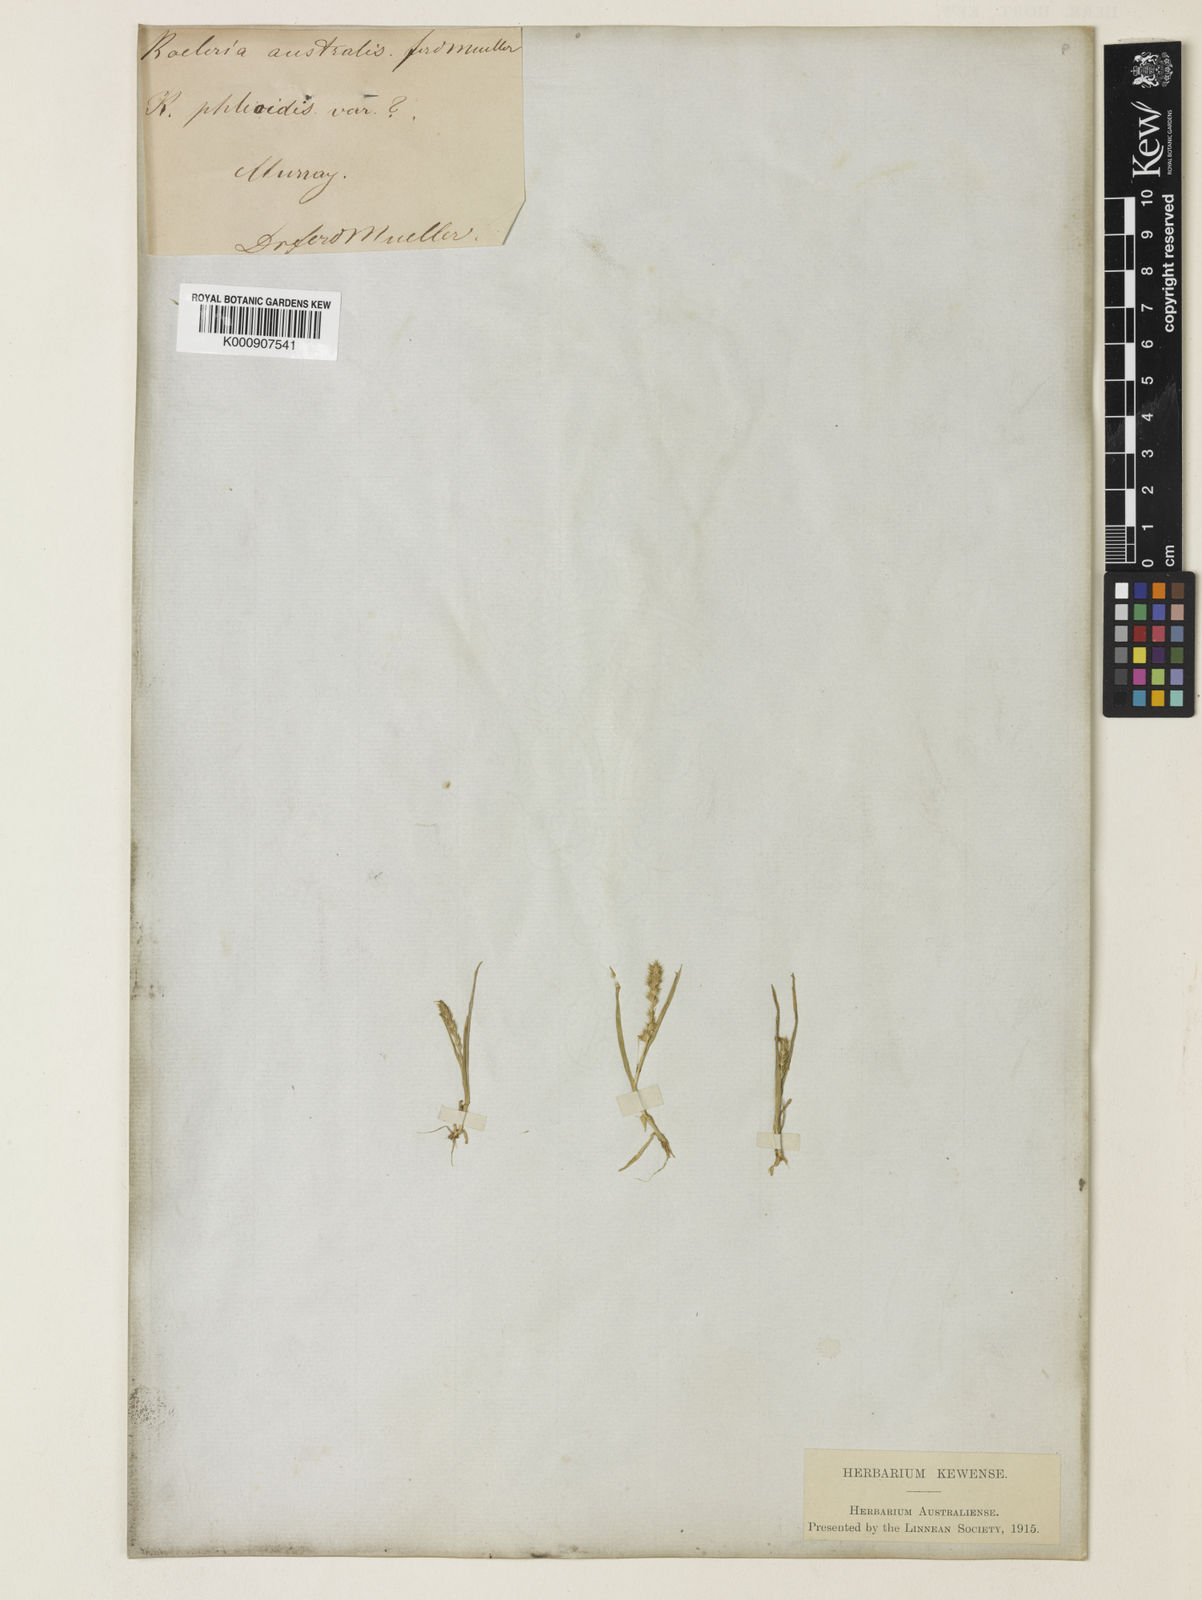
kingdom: Plantae
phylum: Tracheophyta
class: Liliopsida
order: Poales
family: Poaceae
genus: Elytrophorus
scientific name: Elytrophorus spicatus
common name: Spike grass
